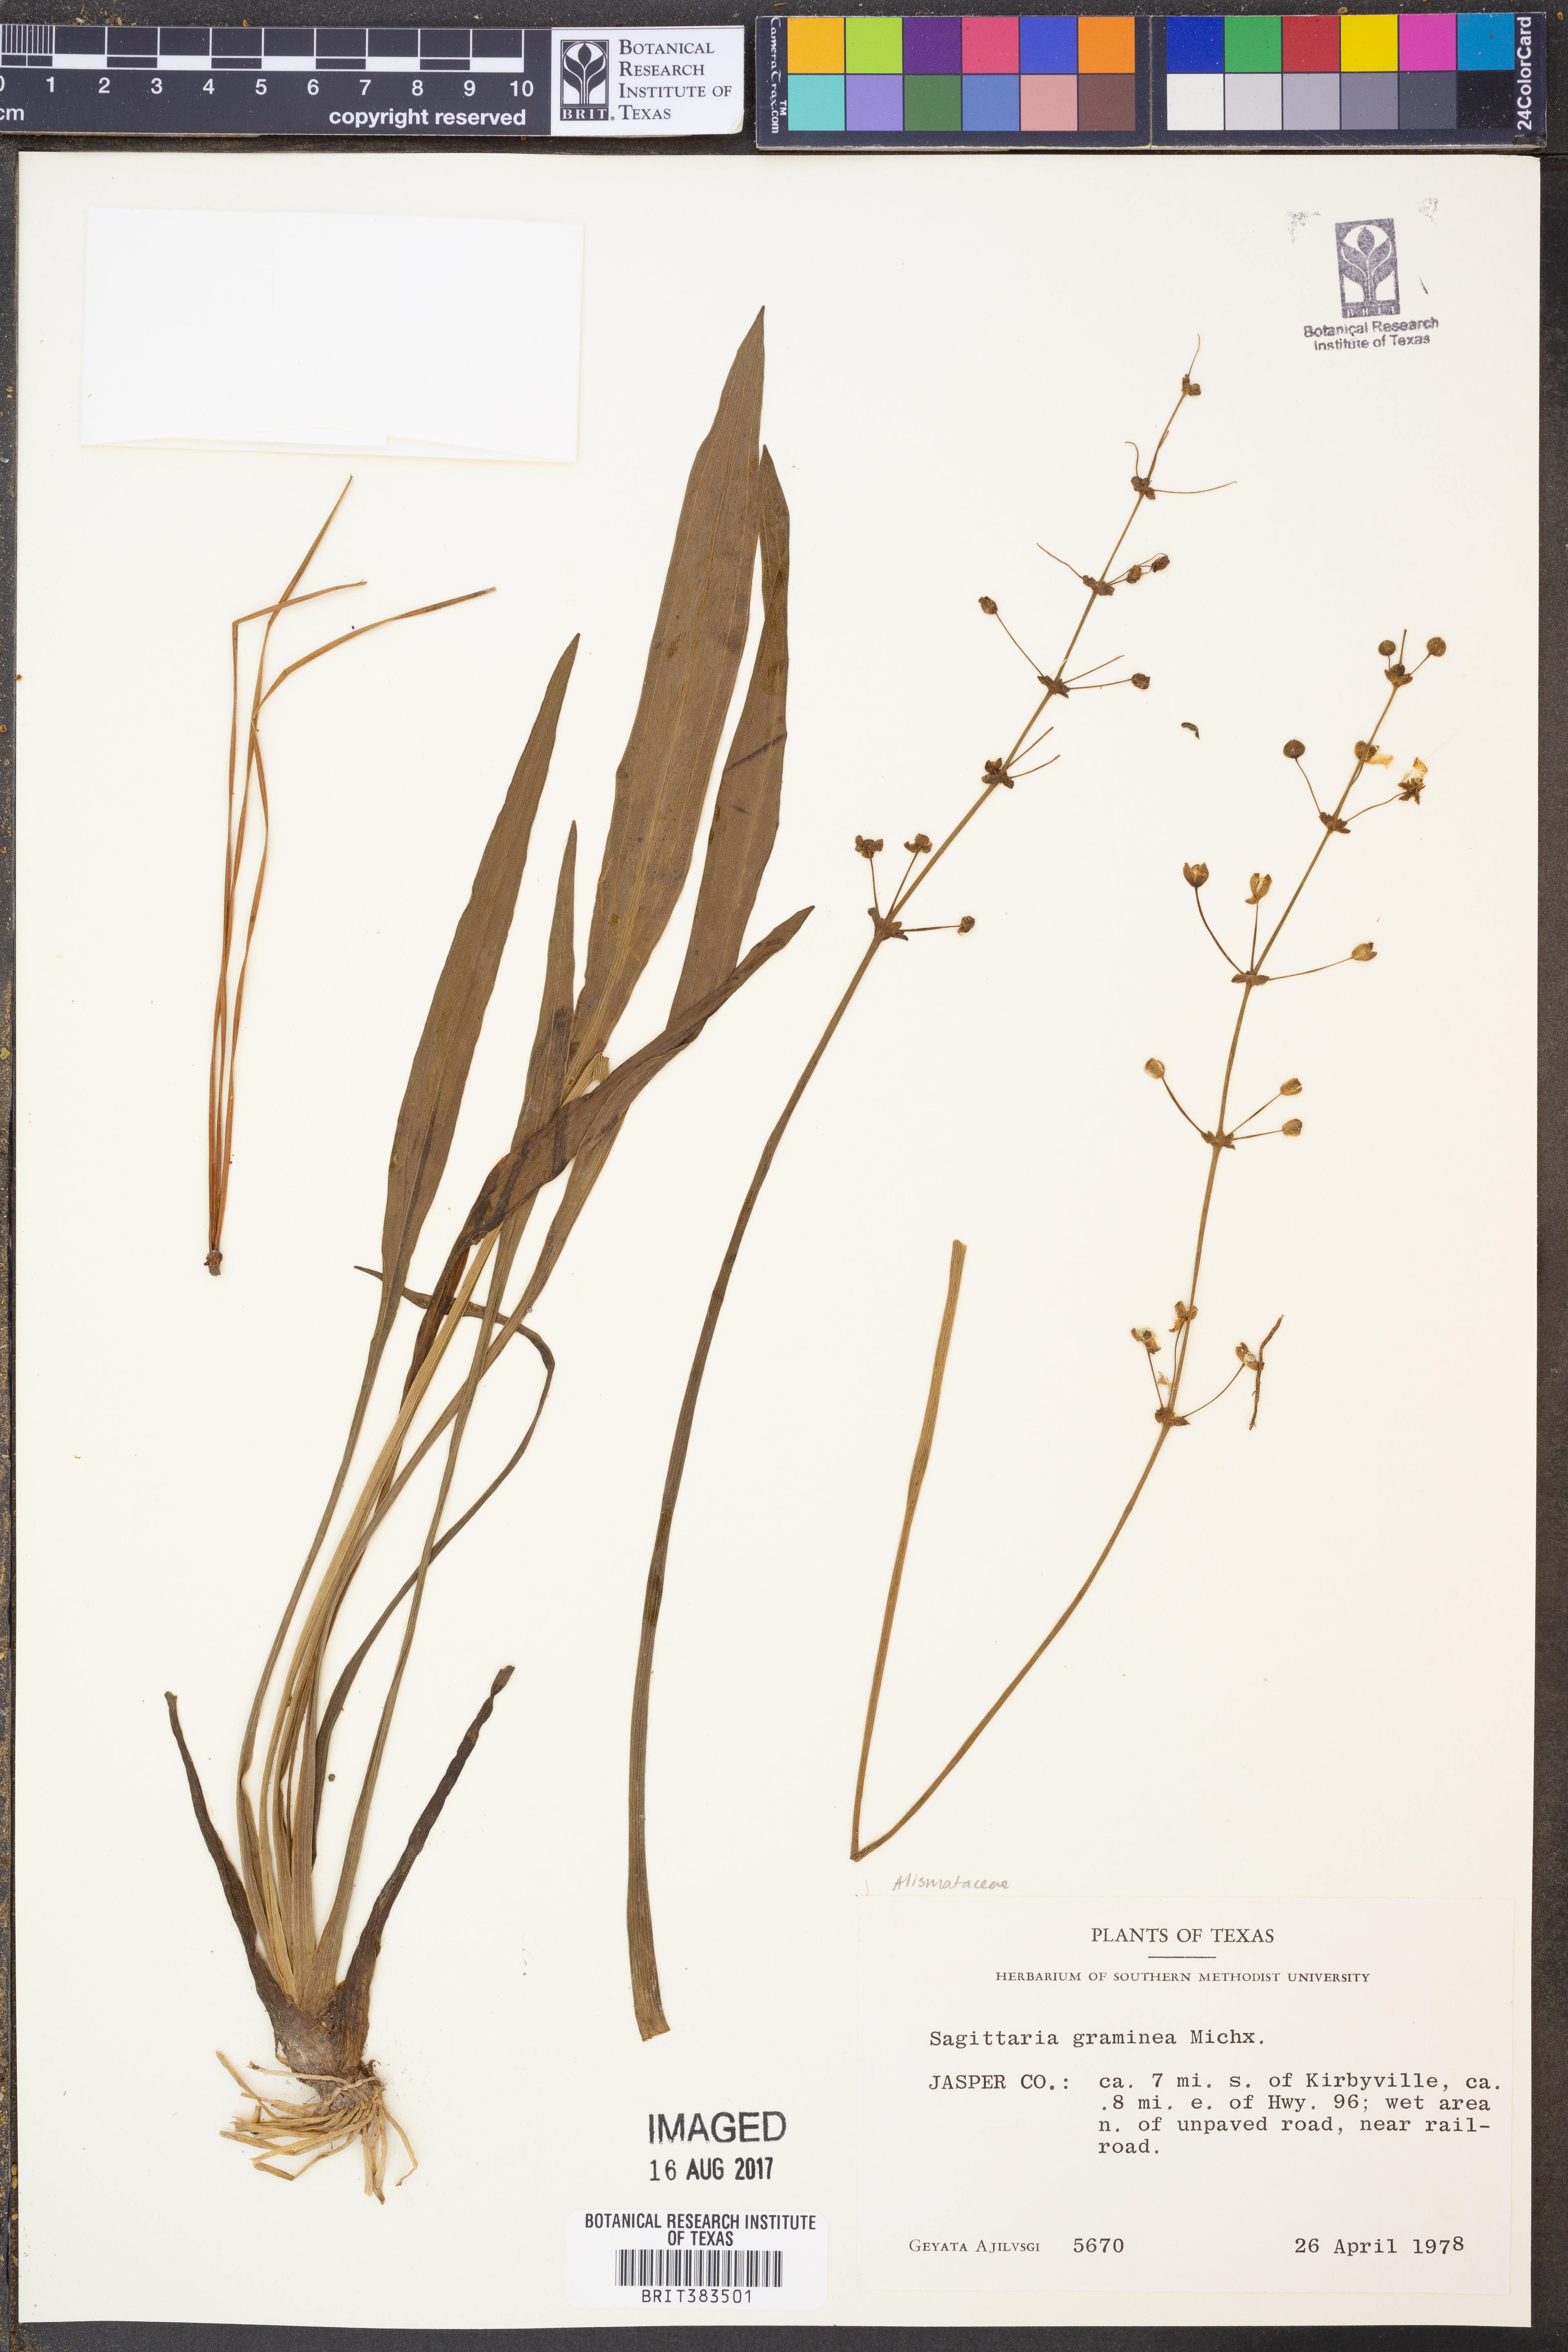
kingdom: Plantae
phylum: Tracheophyta
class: Liliopsida
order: Alismatales
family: Alismataceae
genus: Sagittaria
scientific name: Sagittaria graminea
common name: Grass-leaved arrowhead
